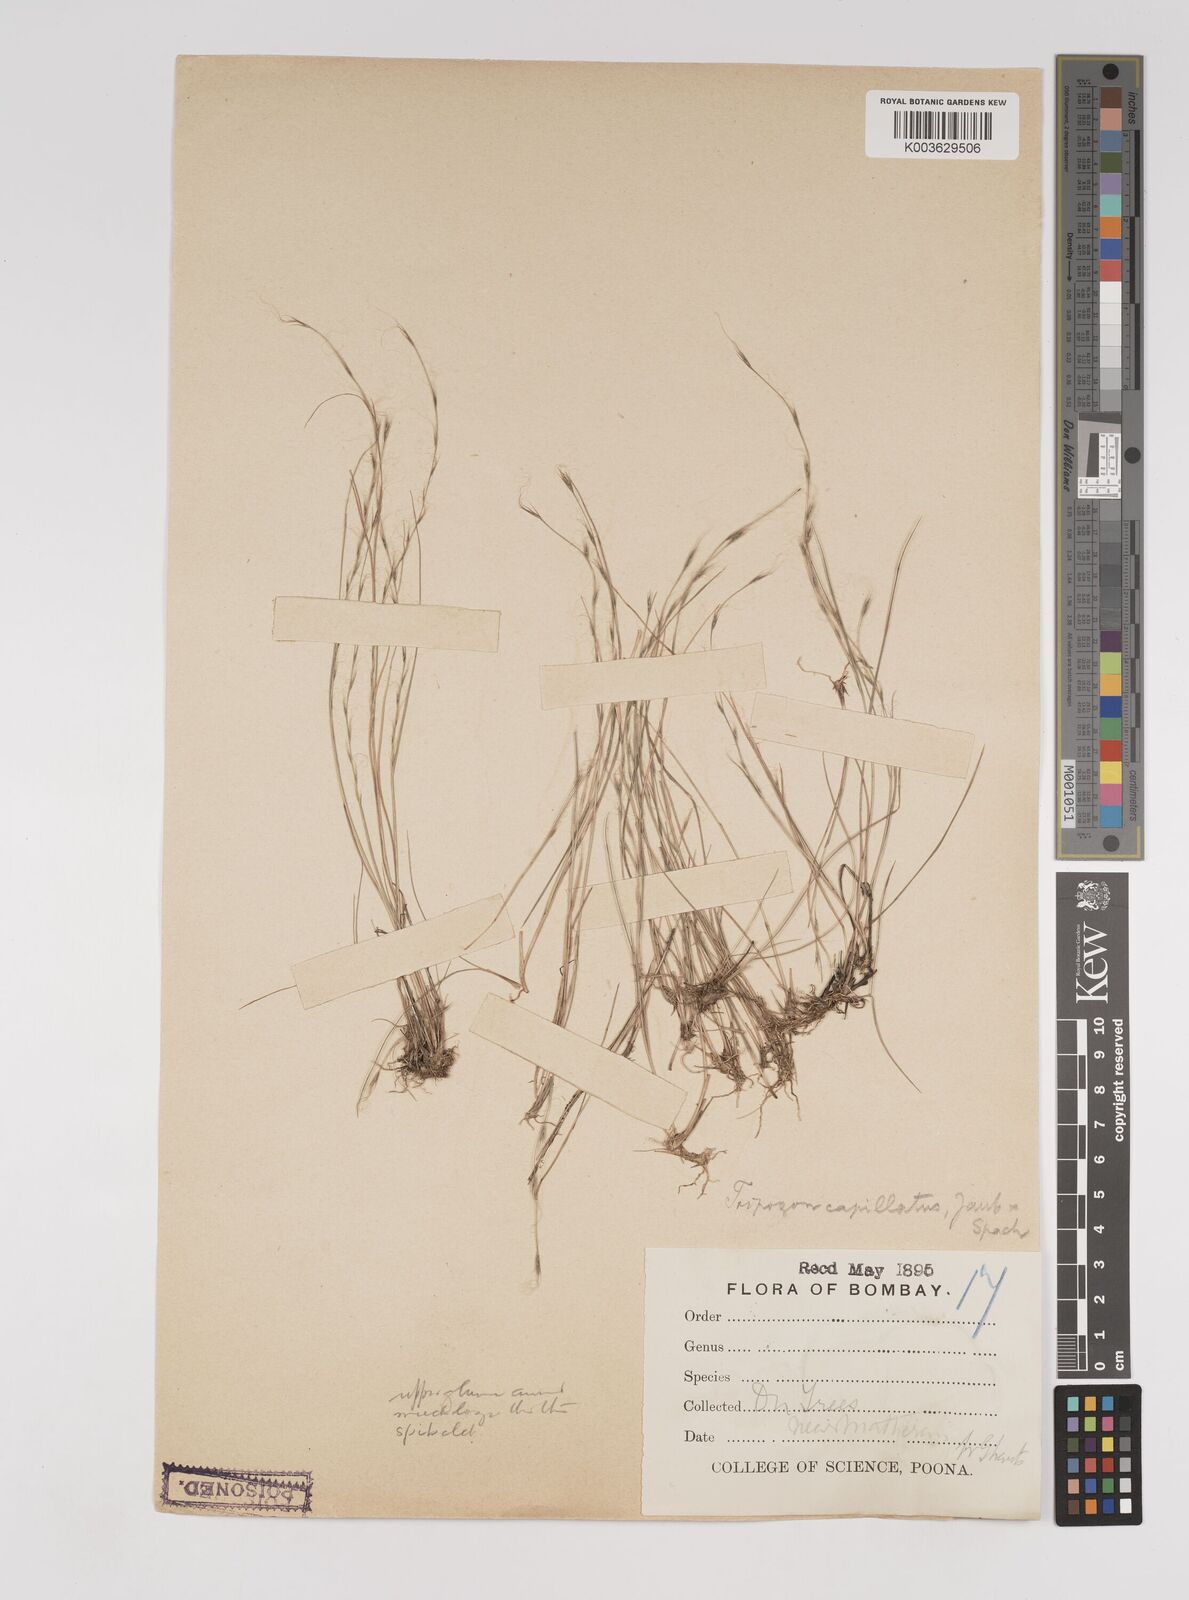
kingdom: Plantae
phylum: Tracheophyta
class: Liliopsida
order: Poales
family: Poaceae
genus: Tripogon
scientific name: Tripogon capillatus
